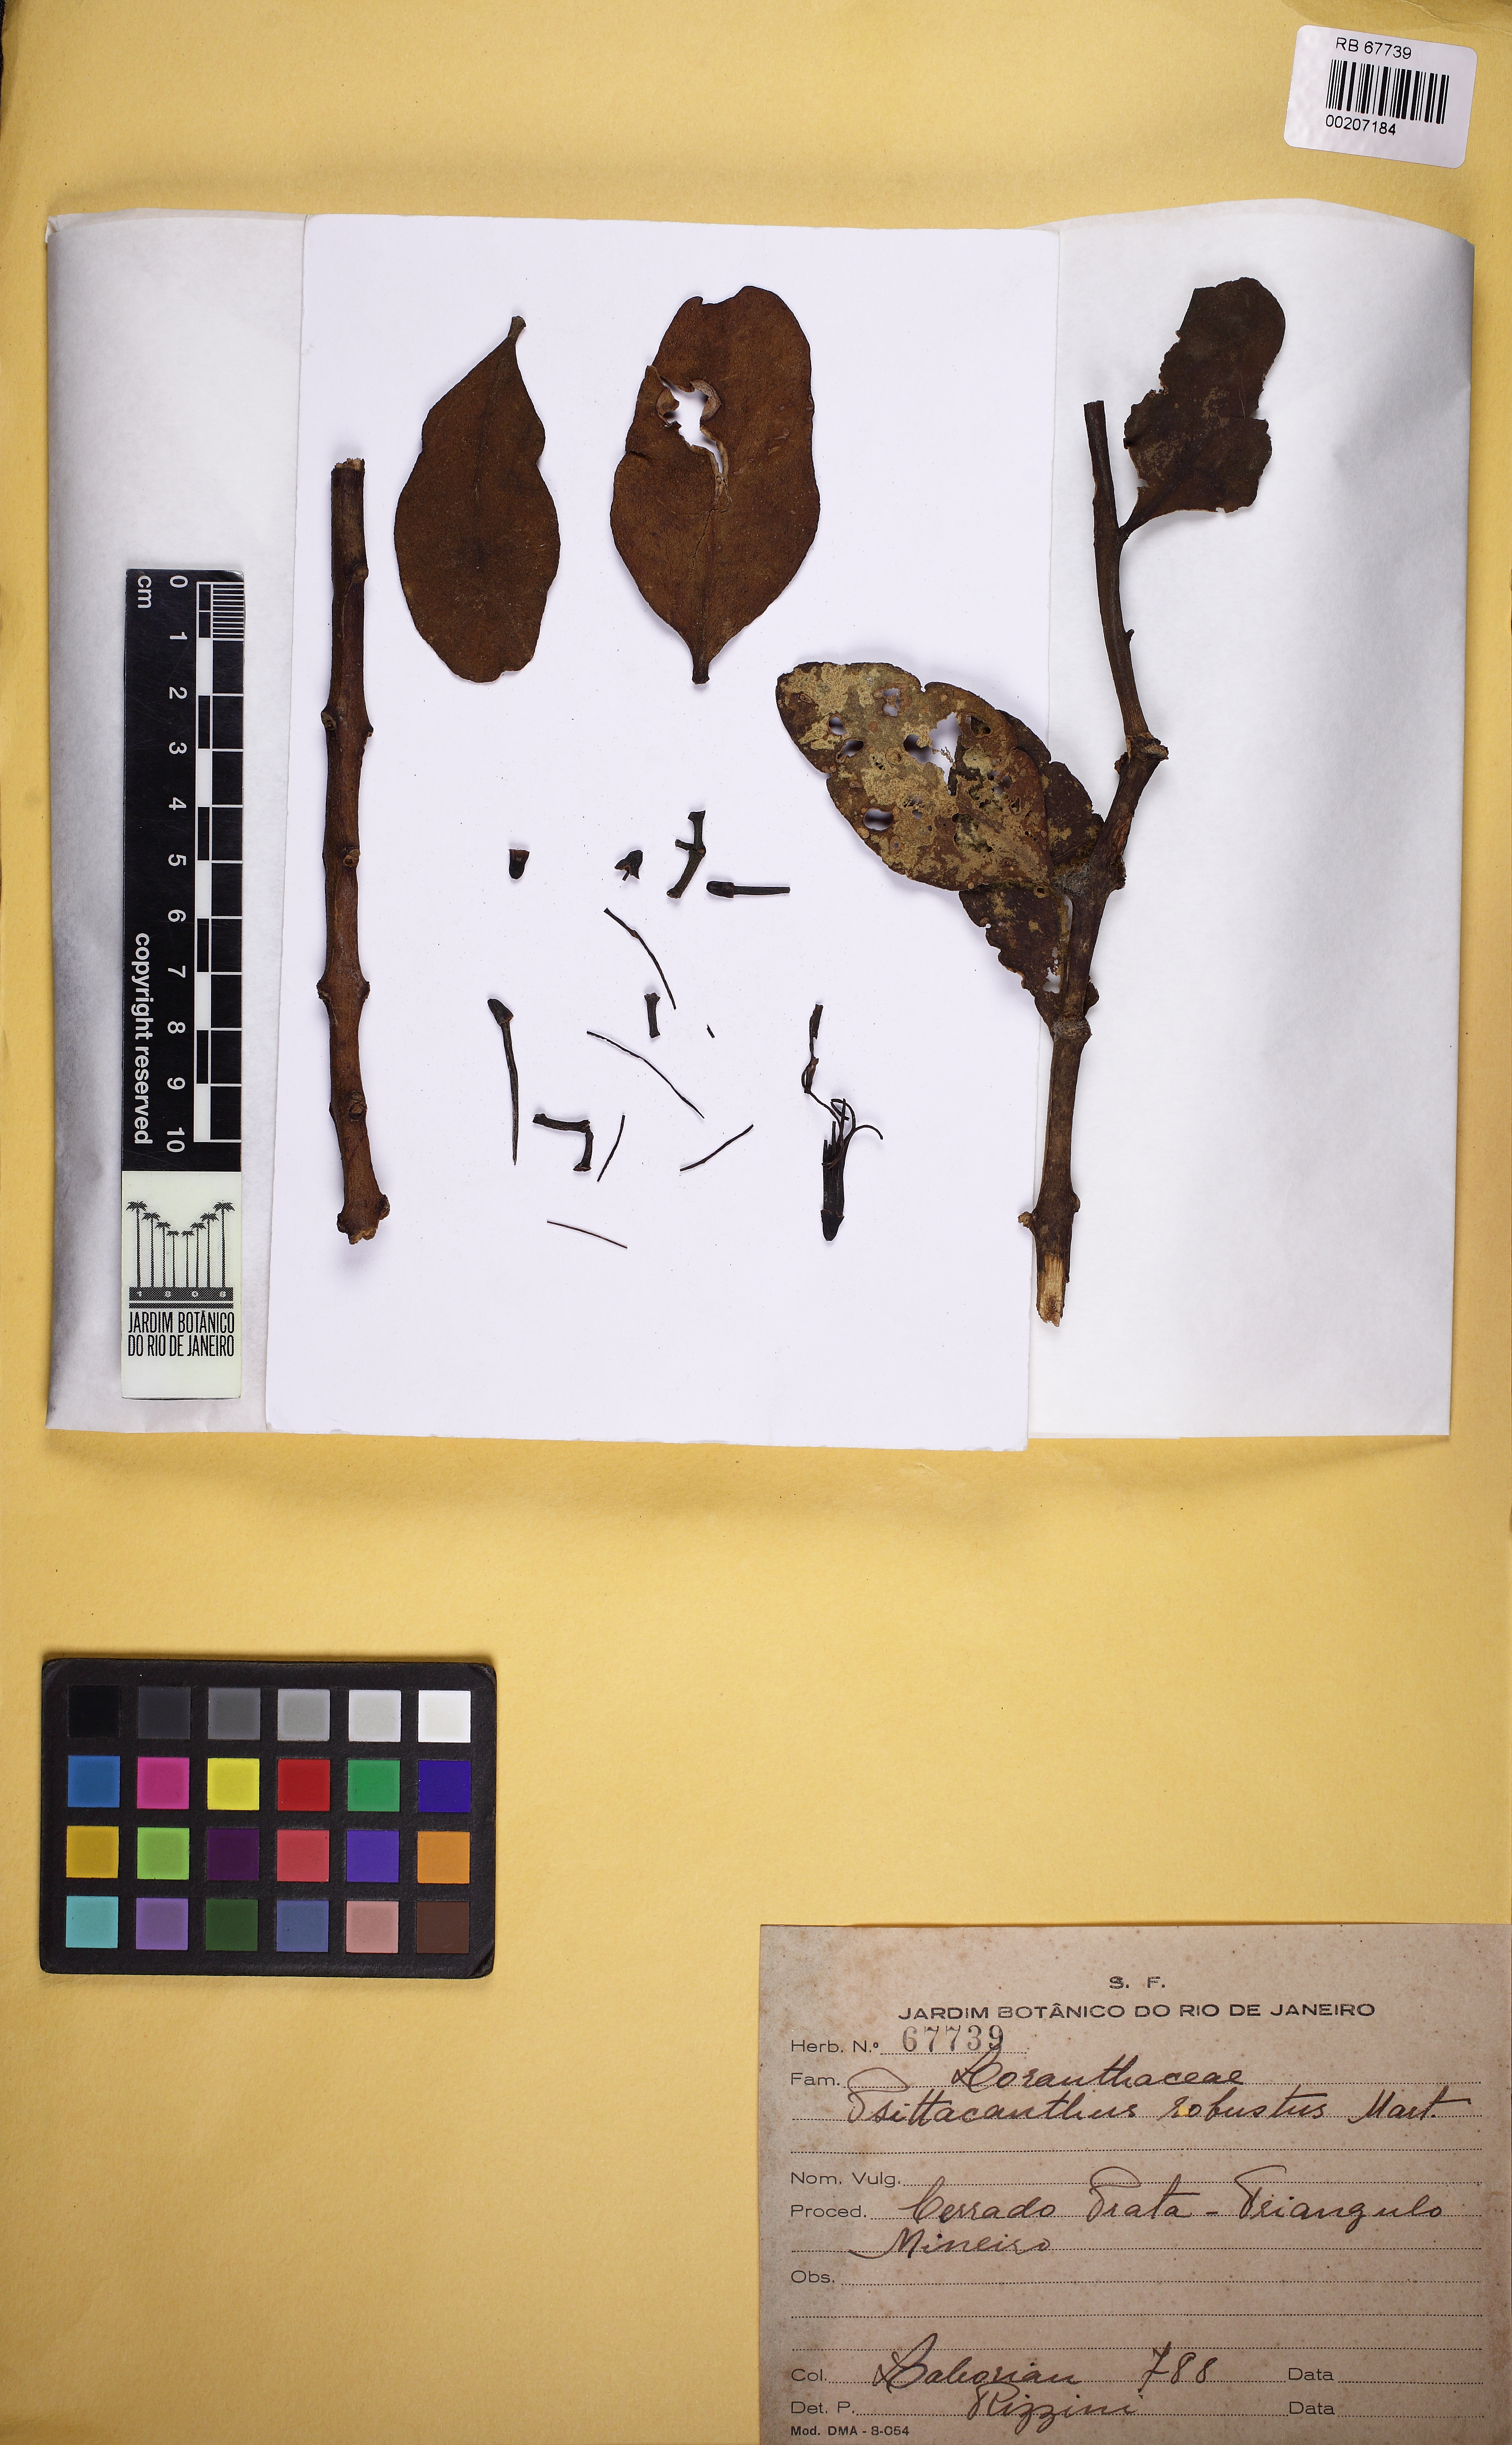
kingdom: Plantae
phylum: Tracheophyta
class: Magnoliopsida
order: Santalales
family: Loranthaceae
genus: Psittacanthus
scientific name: Psittacanthus robustus
